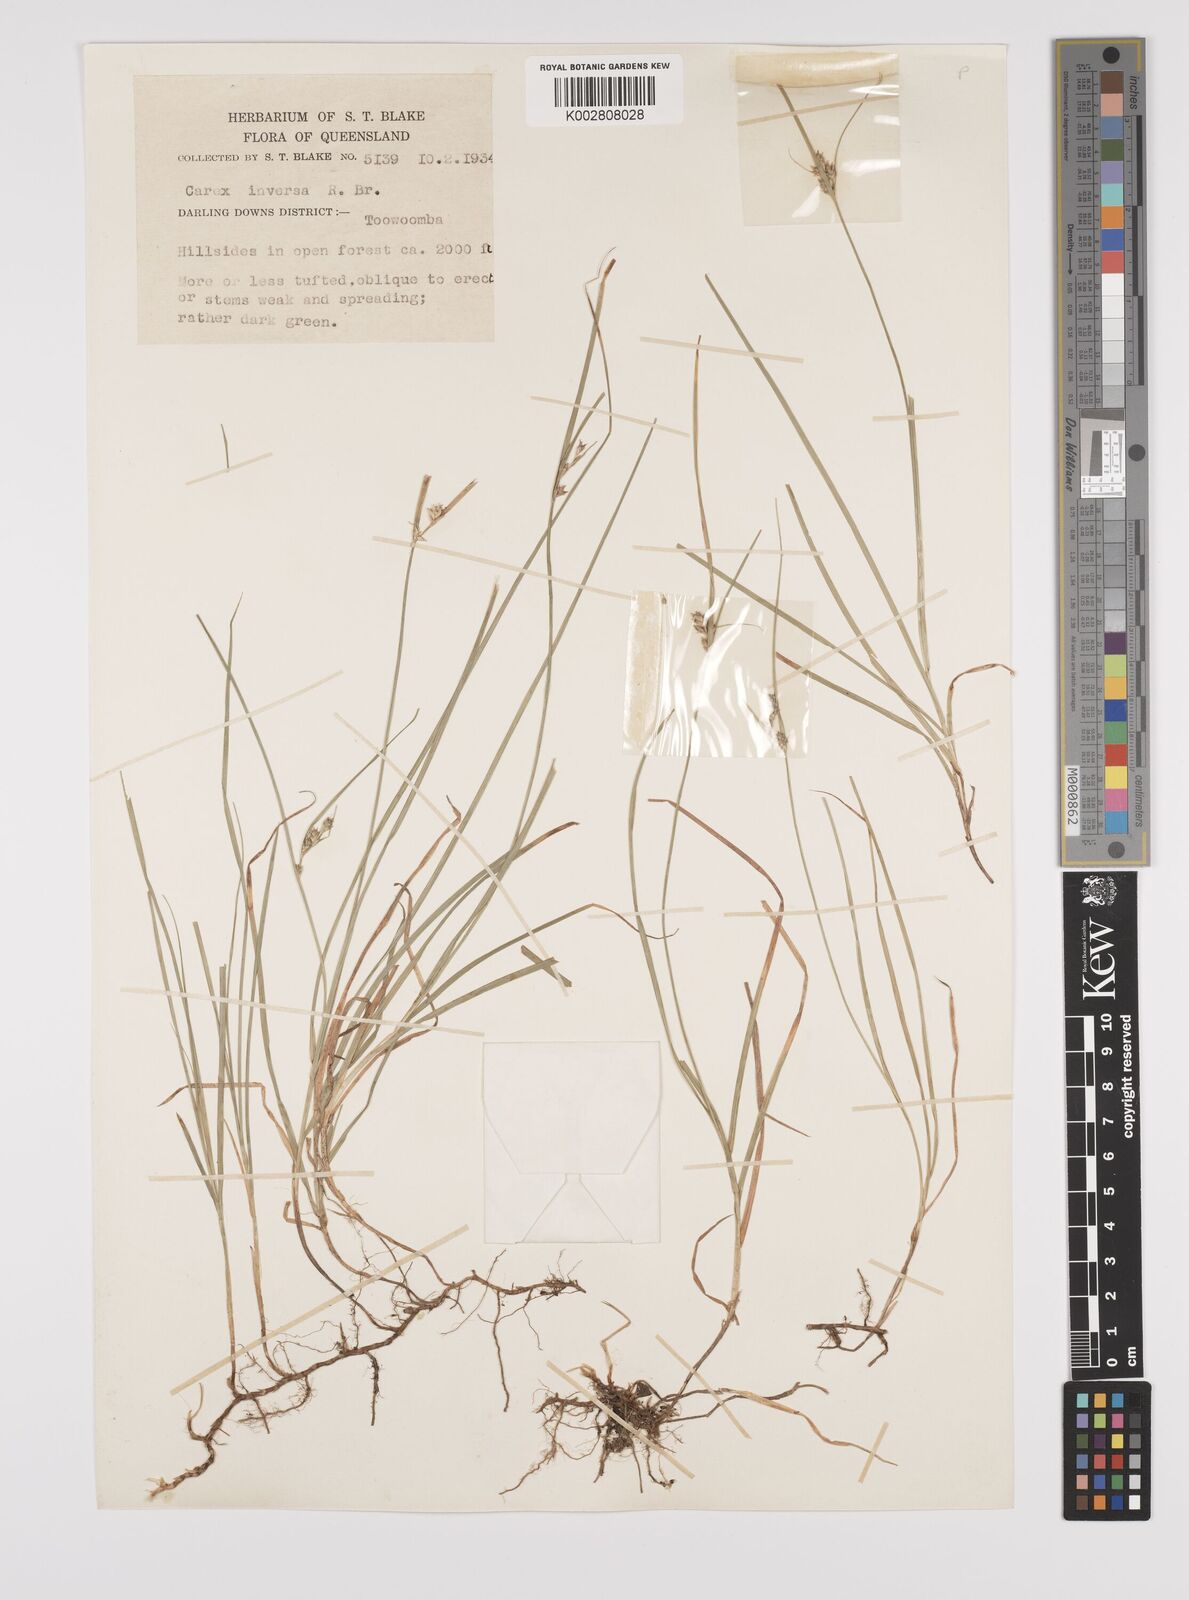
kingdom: Plantae
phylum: Tracheophyta
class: Liliopsida
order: Poales
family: Cyperaceae
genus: Carex
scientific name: Carex inversa
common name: Knob sedge
